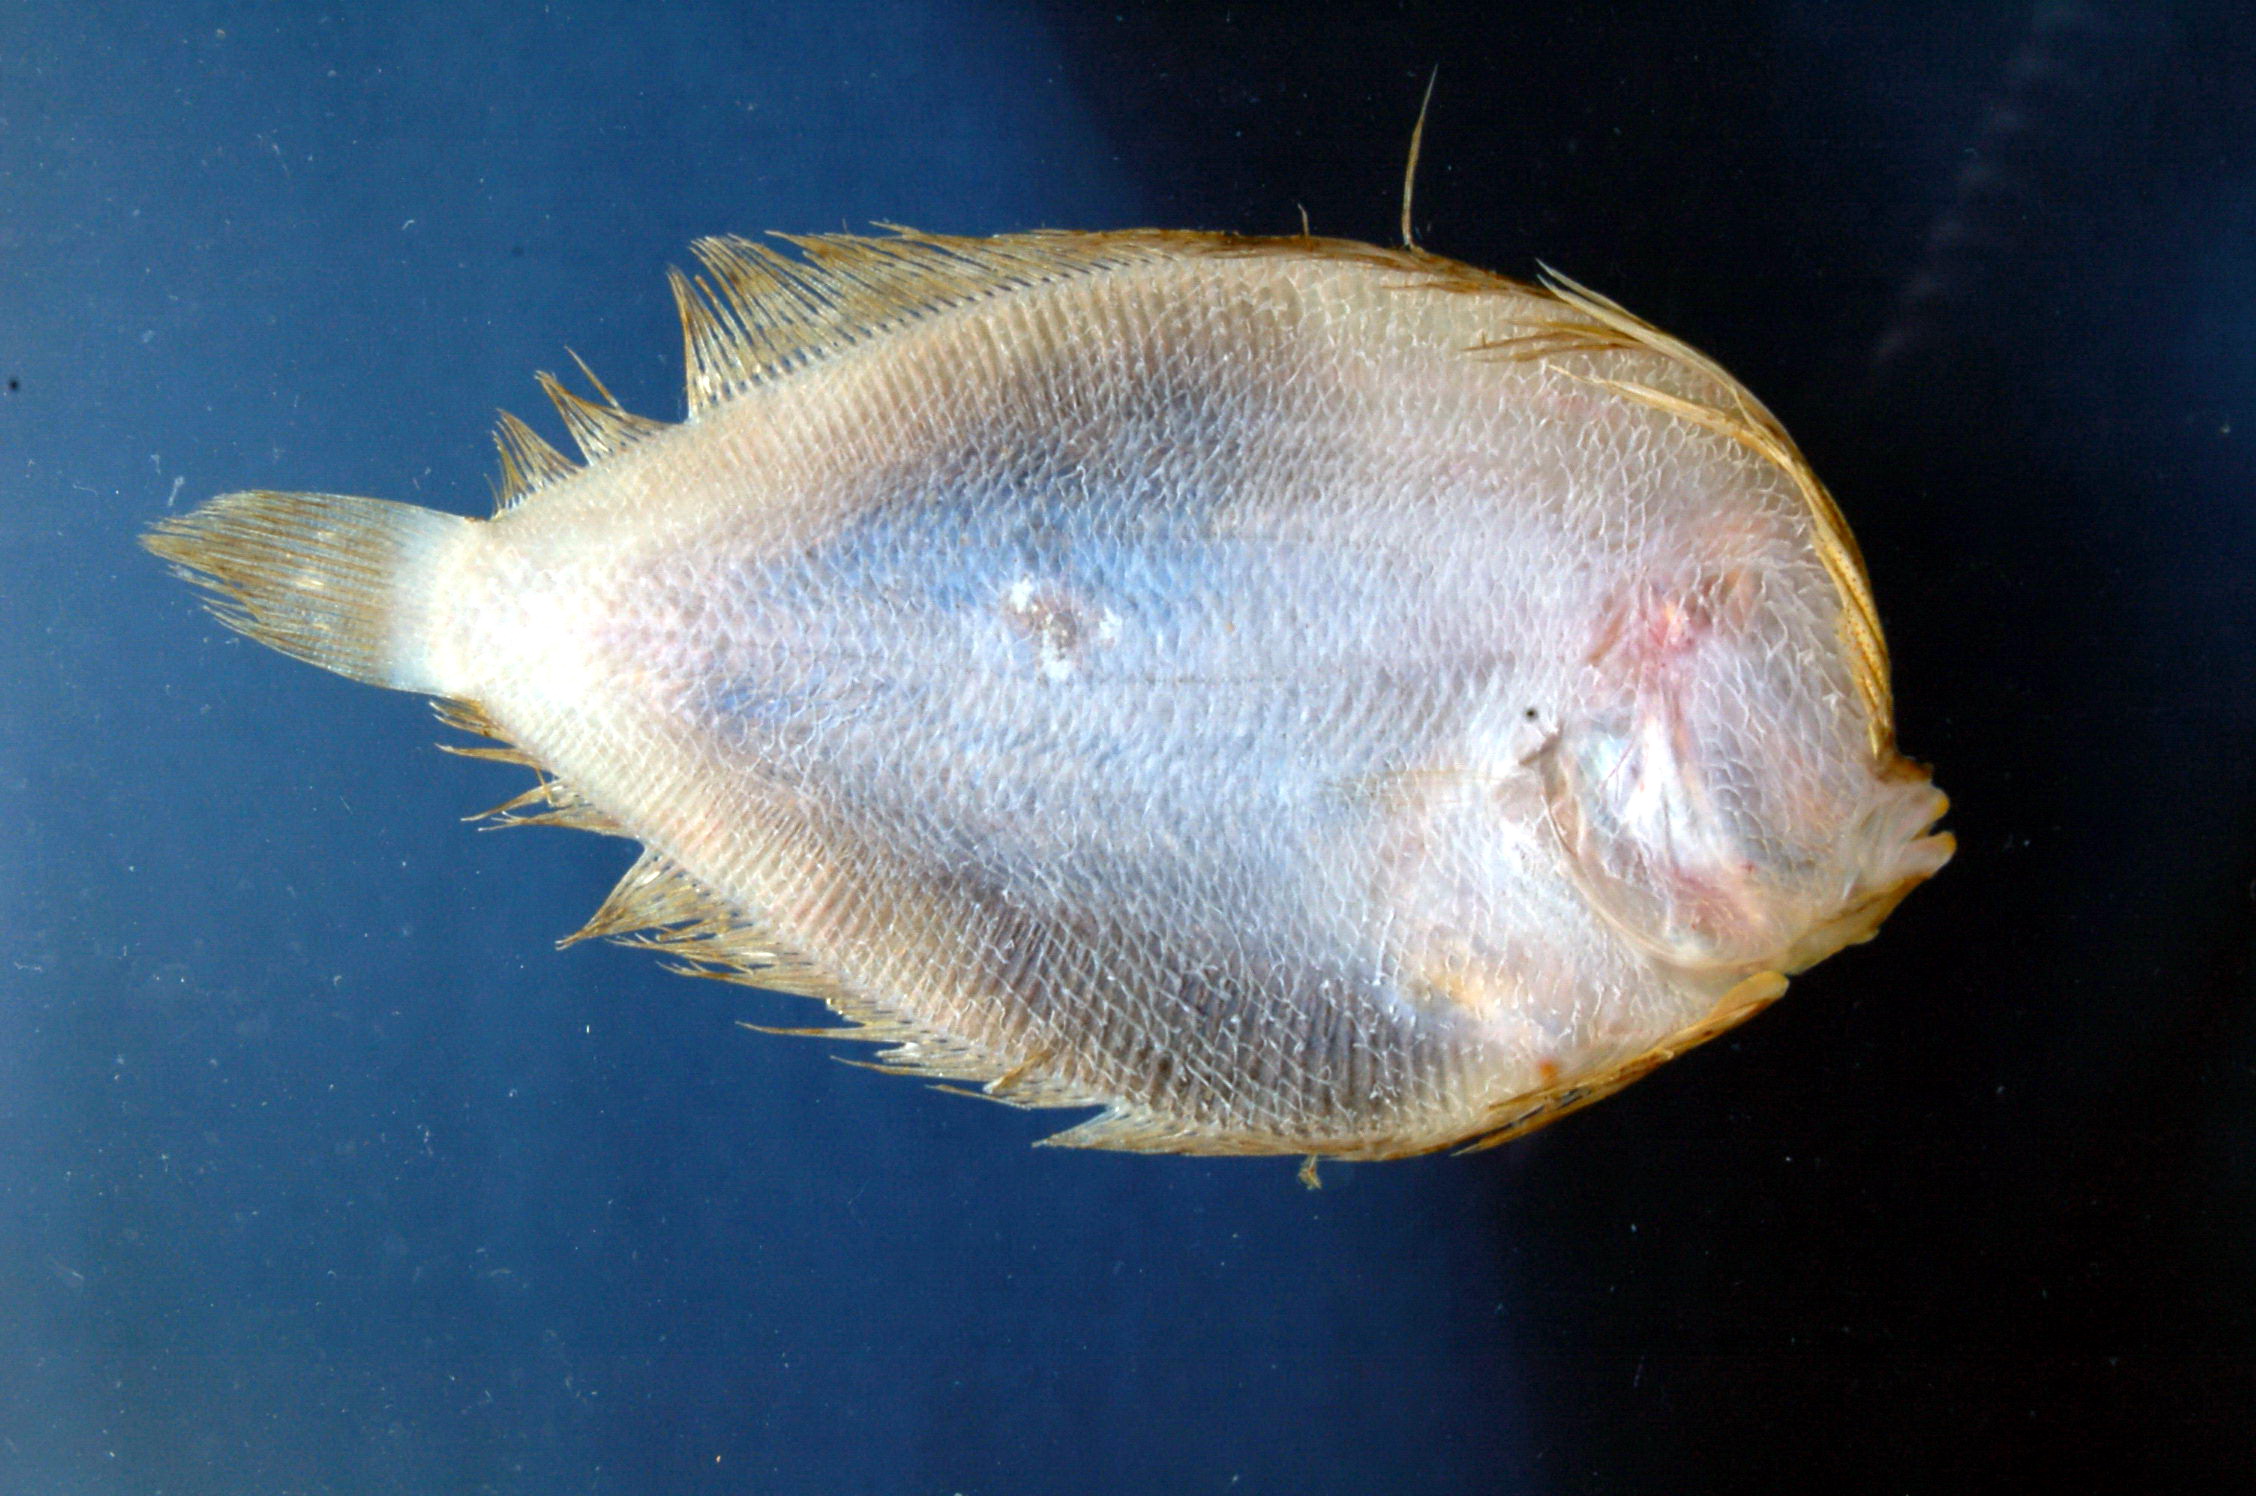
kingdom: Animalia
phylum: Chordata
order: Pleuronectiformes
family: Bothidae
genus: Crossorhombus
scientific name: Crossorhombus valderostratus
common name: Broadbrow flounder
